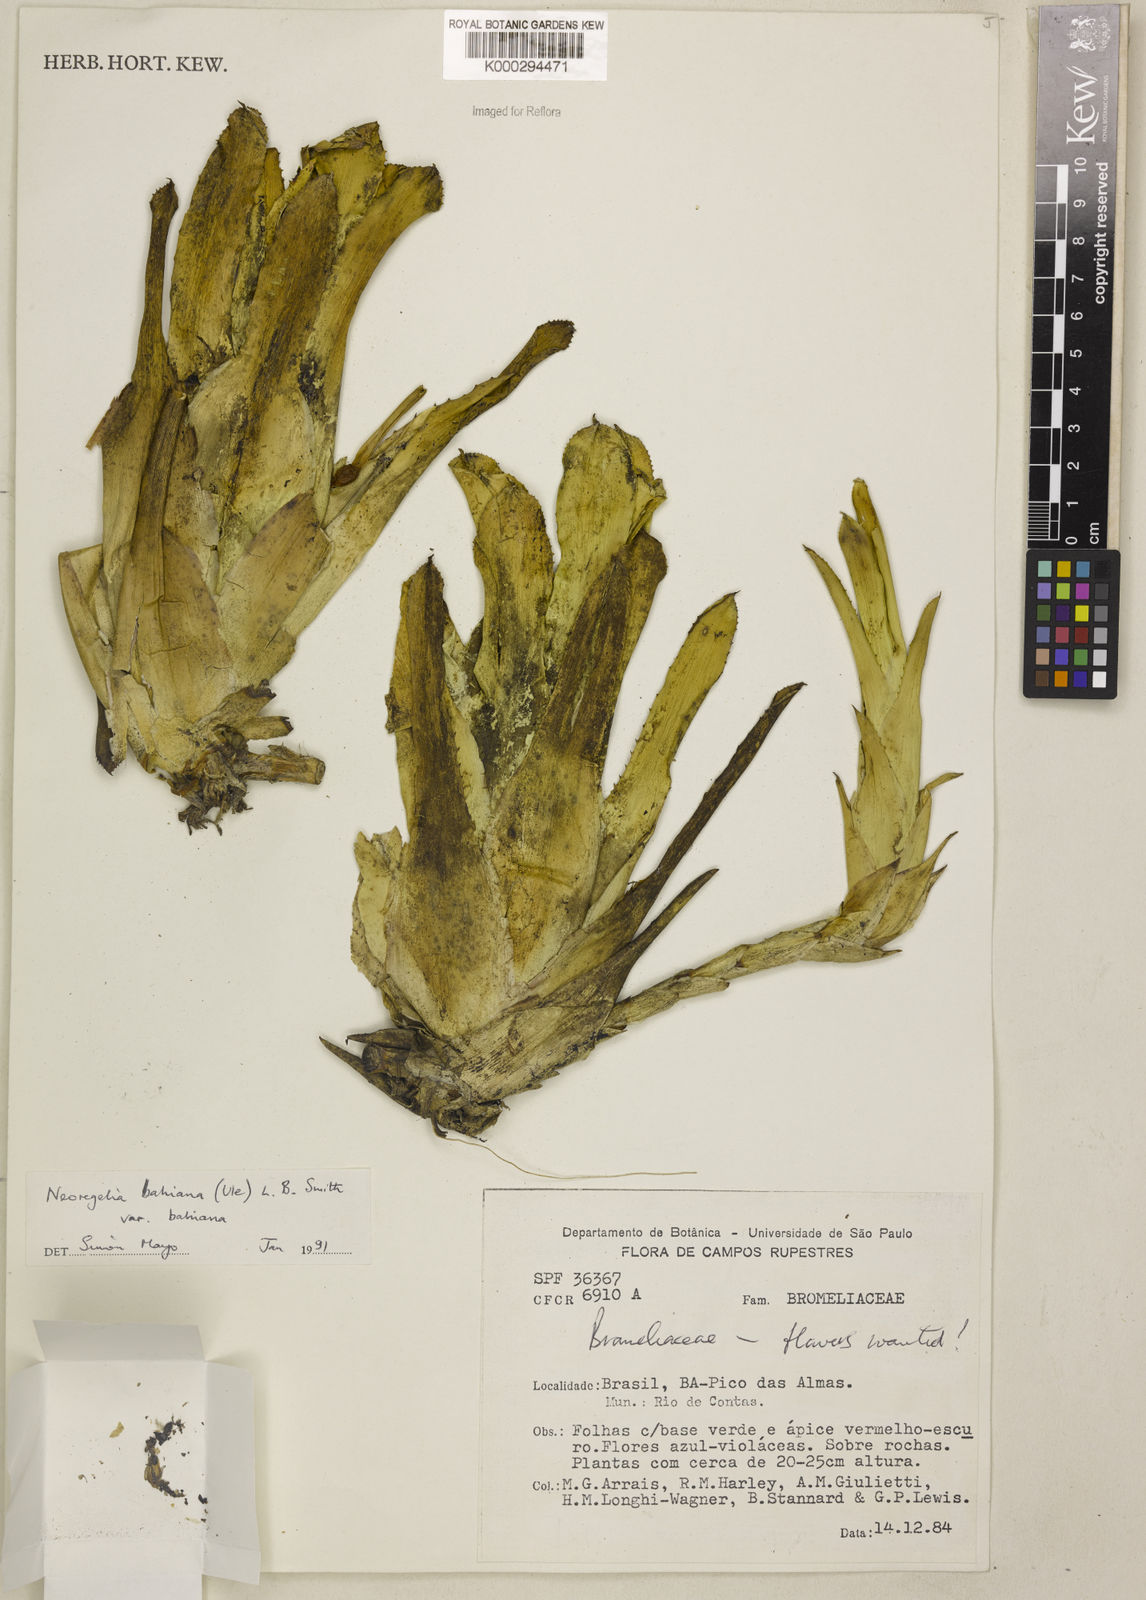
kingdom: Plantae
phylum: Tracheophyta
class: Liliopsida
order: Poales
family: Bromeliaceae
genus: Neoregelia
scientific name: Neoregelia bahiana
